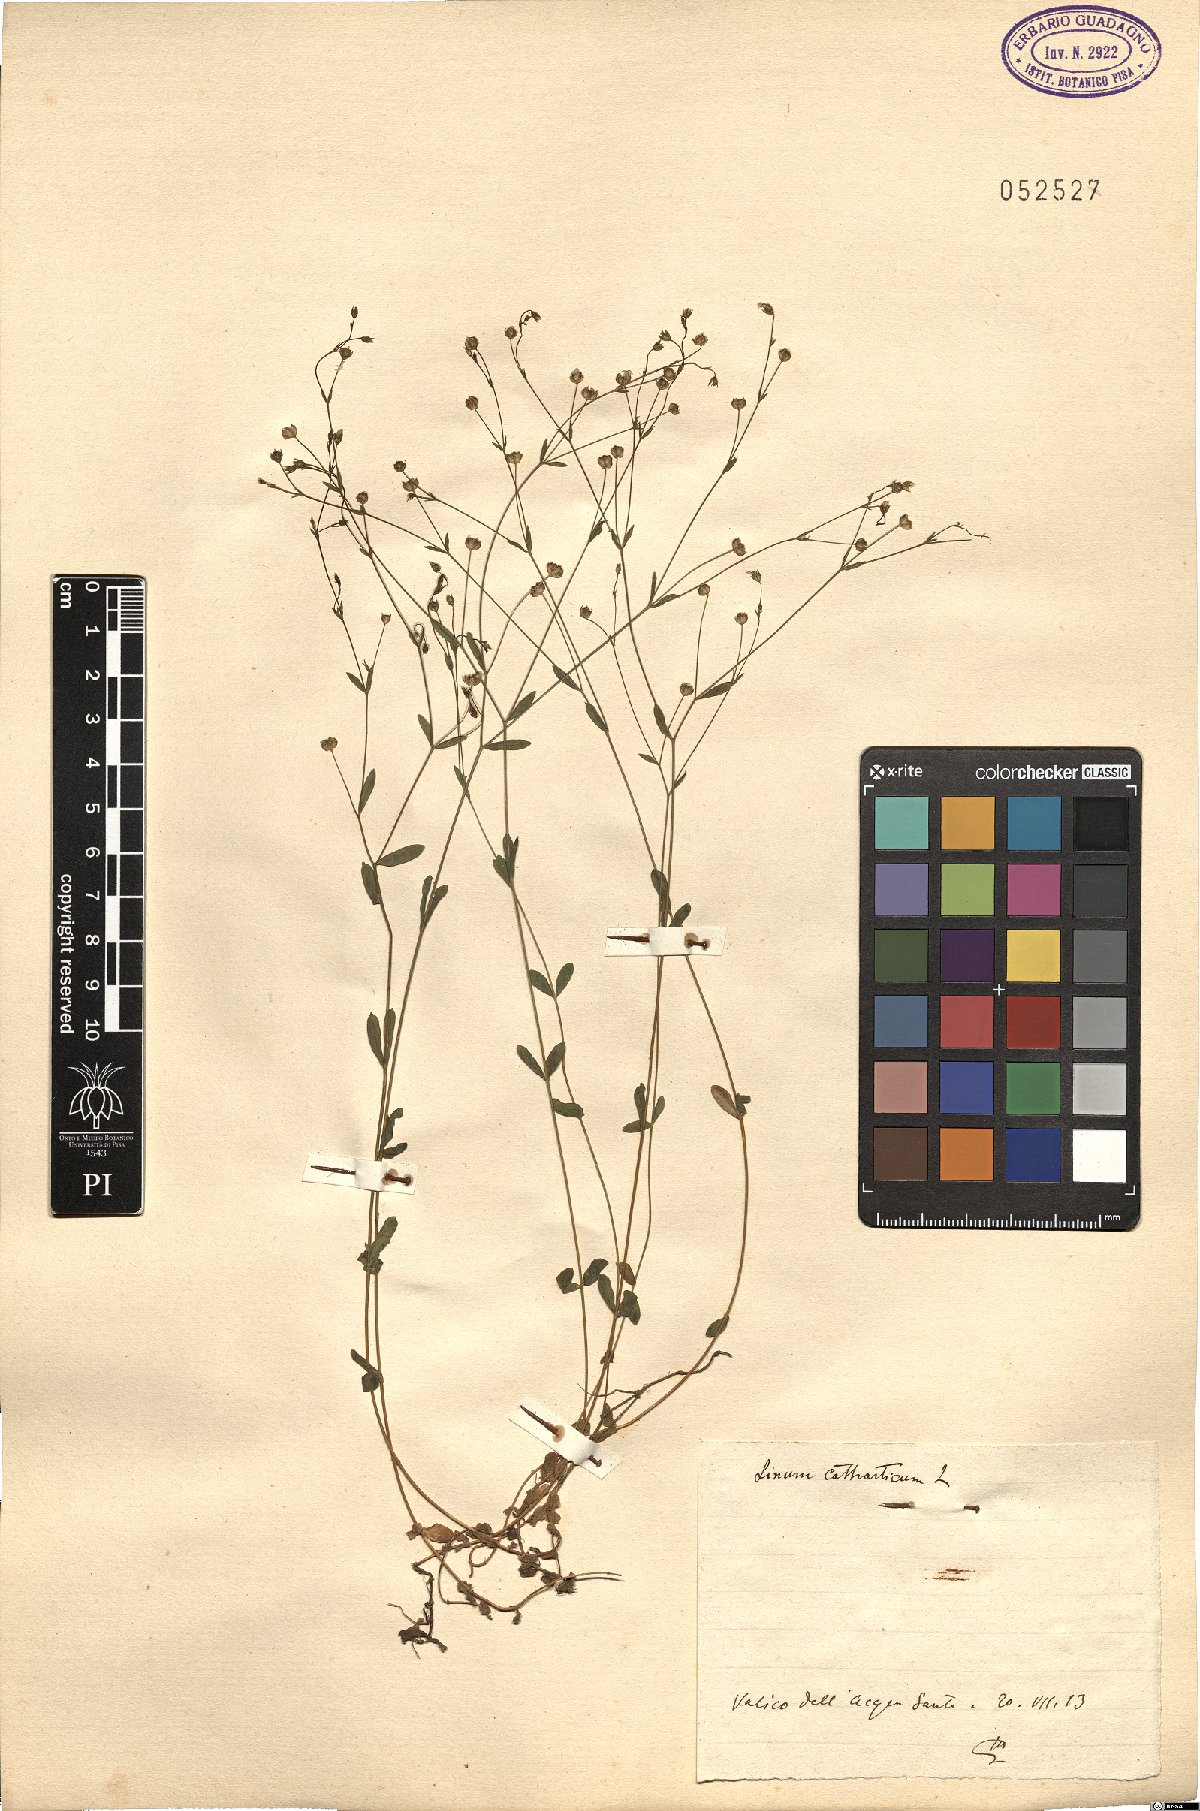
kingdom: Plantae
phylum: Tracheophyta
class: Magnoliopsida
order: Malpighiales
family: Linaceae
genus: Linum
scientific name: Linum catharticum
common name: Fairy flax
